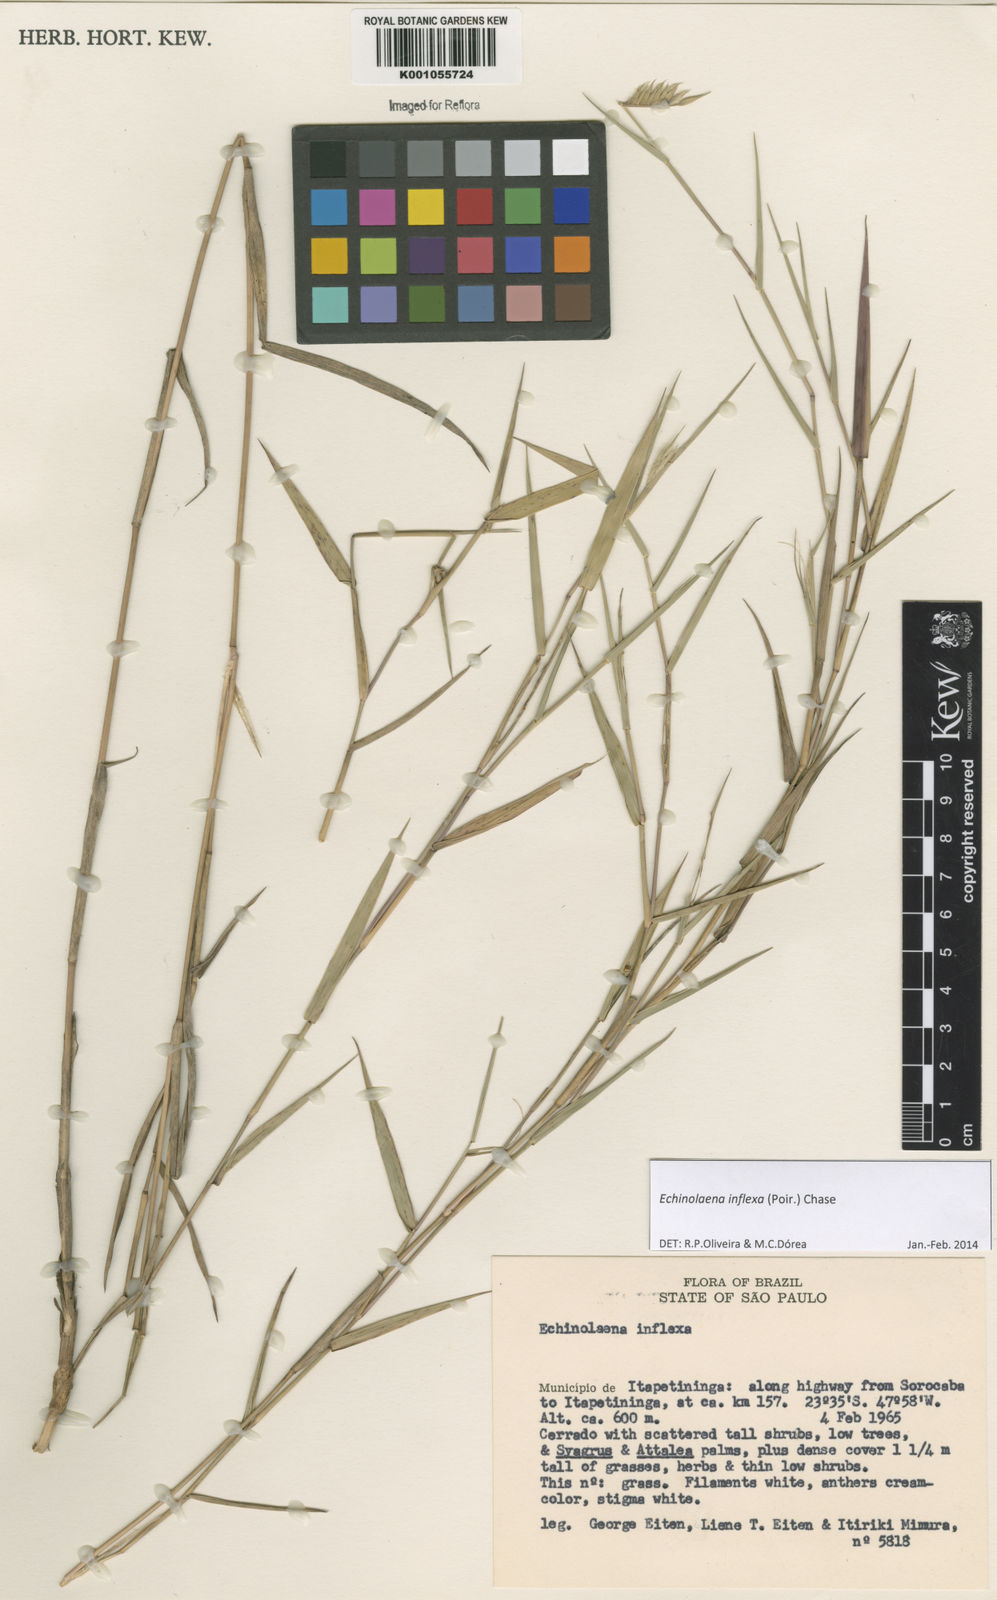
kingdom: Plantae
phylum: Tracheophyta
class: Liliopsida
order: Poales
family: Poaceae
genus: Echinolaena
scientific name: Echinolaena inflexa
